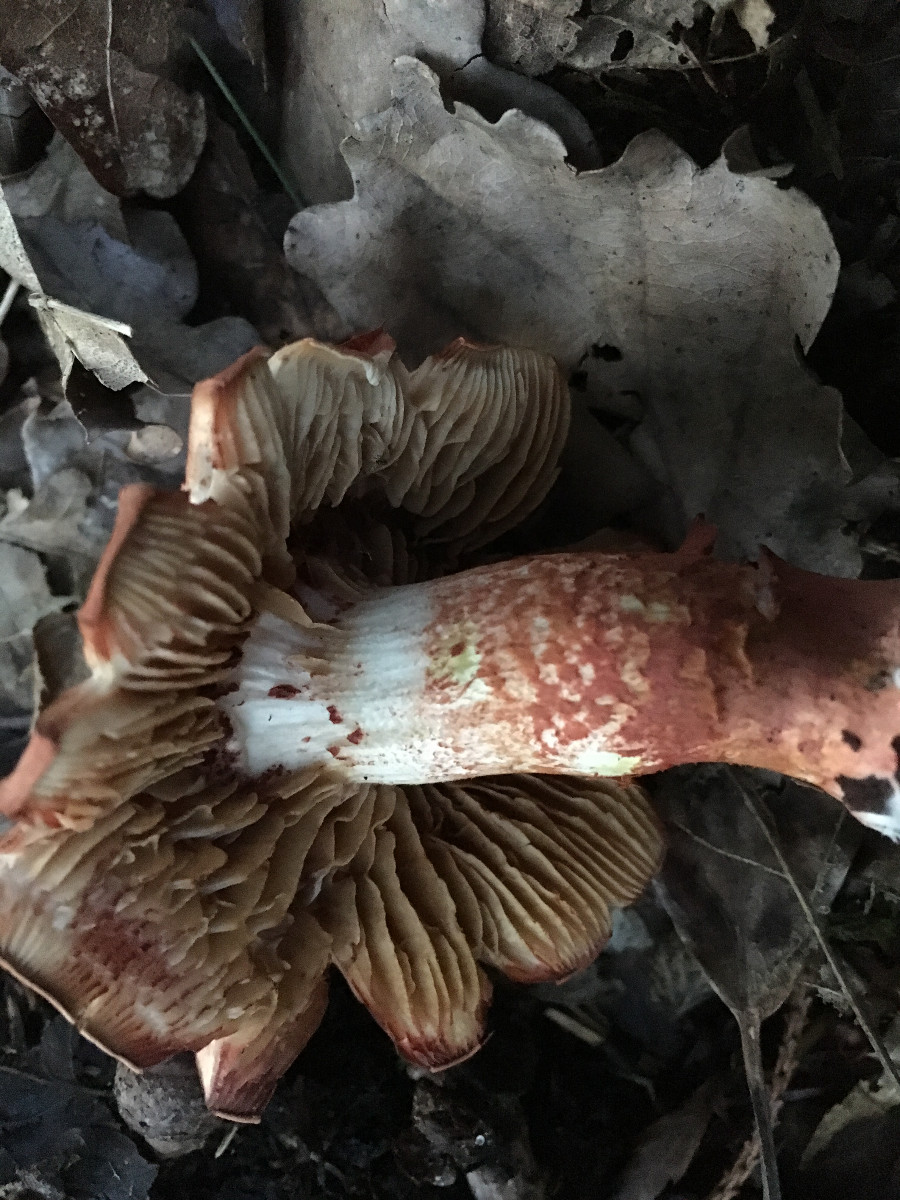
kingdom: Fungi
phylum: Basidiomycota
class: Agaricomycetes
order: Agaricales
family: Cortinariaceae
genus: Cortinarius
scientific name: Cortinarius bolaris
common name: cinnoberskællet slørhat
